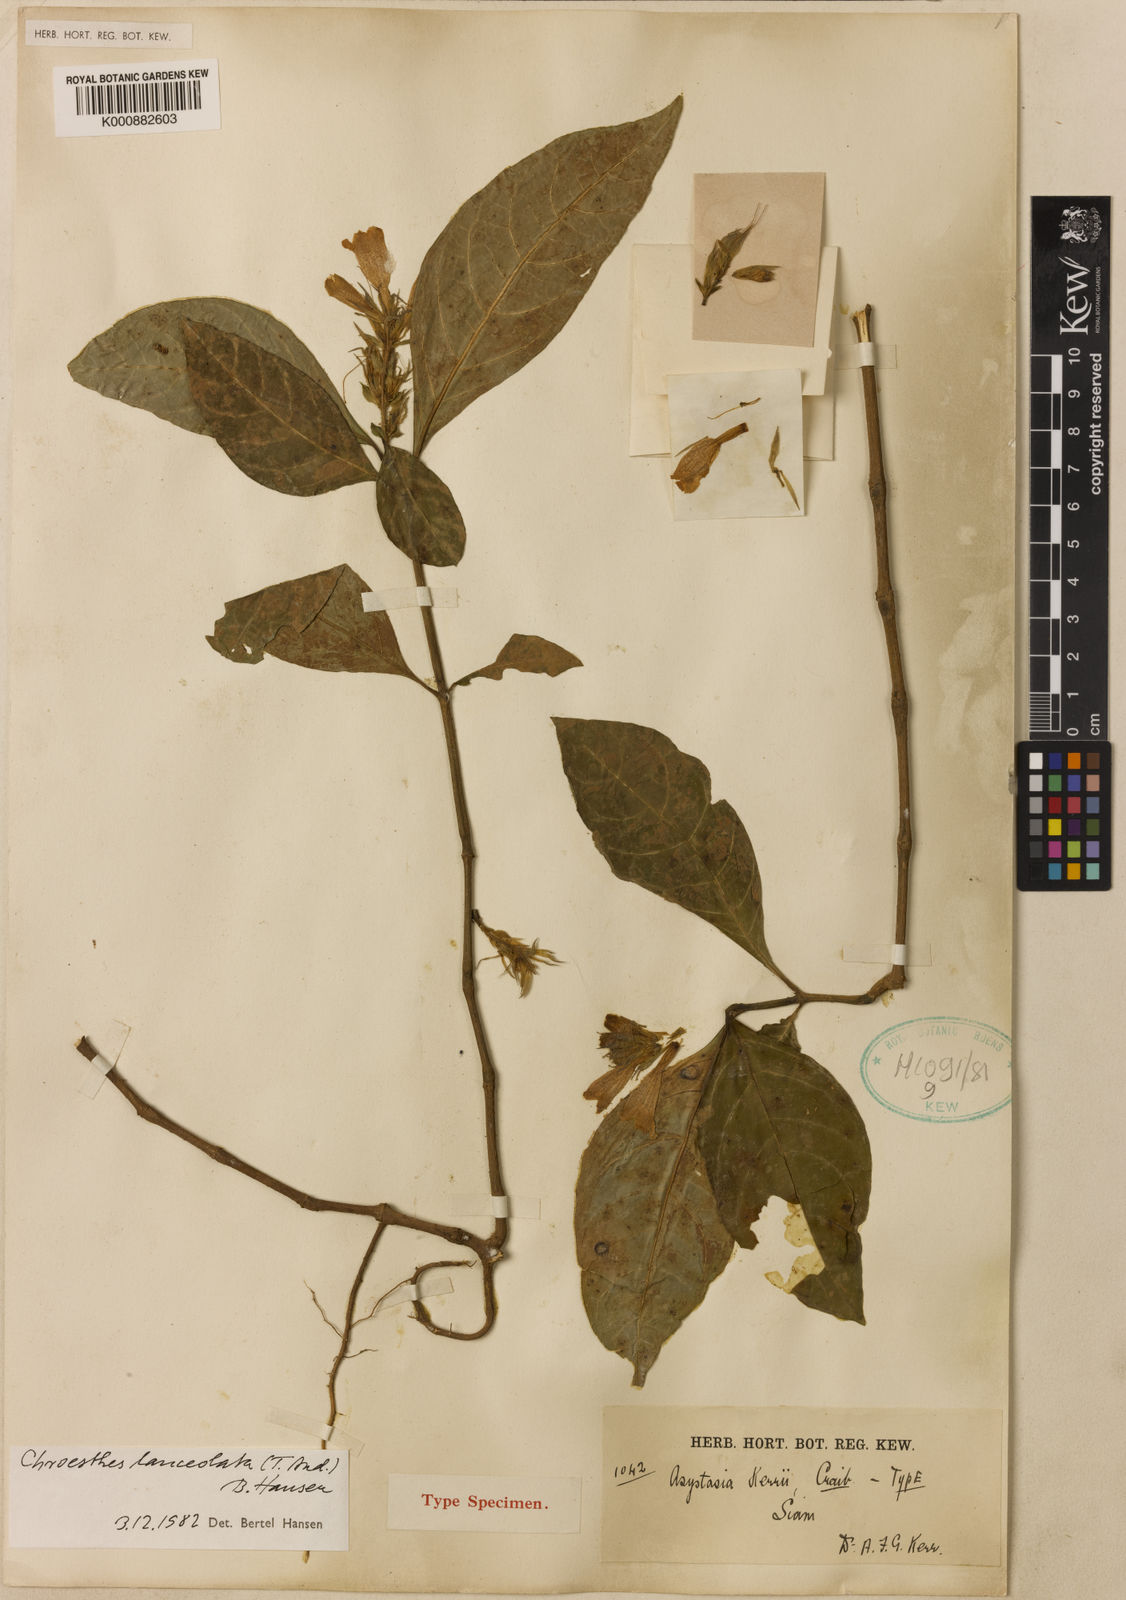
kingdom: Plantae
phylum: Tracheophyta
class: Magnoliopsida
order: Lamiales
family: Acanthaceae
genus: Chroesthes
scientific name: Chroesthes lanceolata
